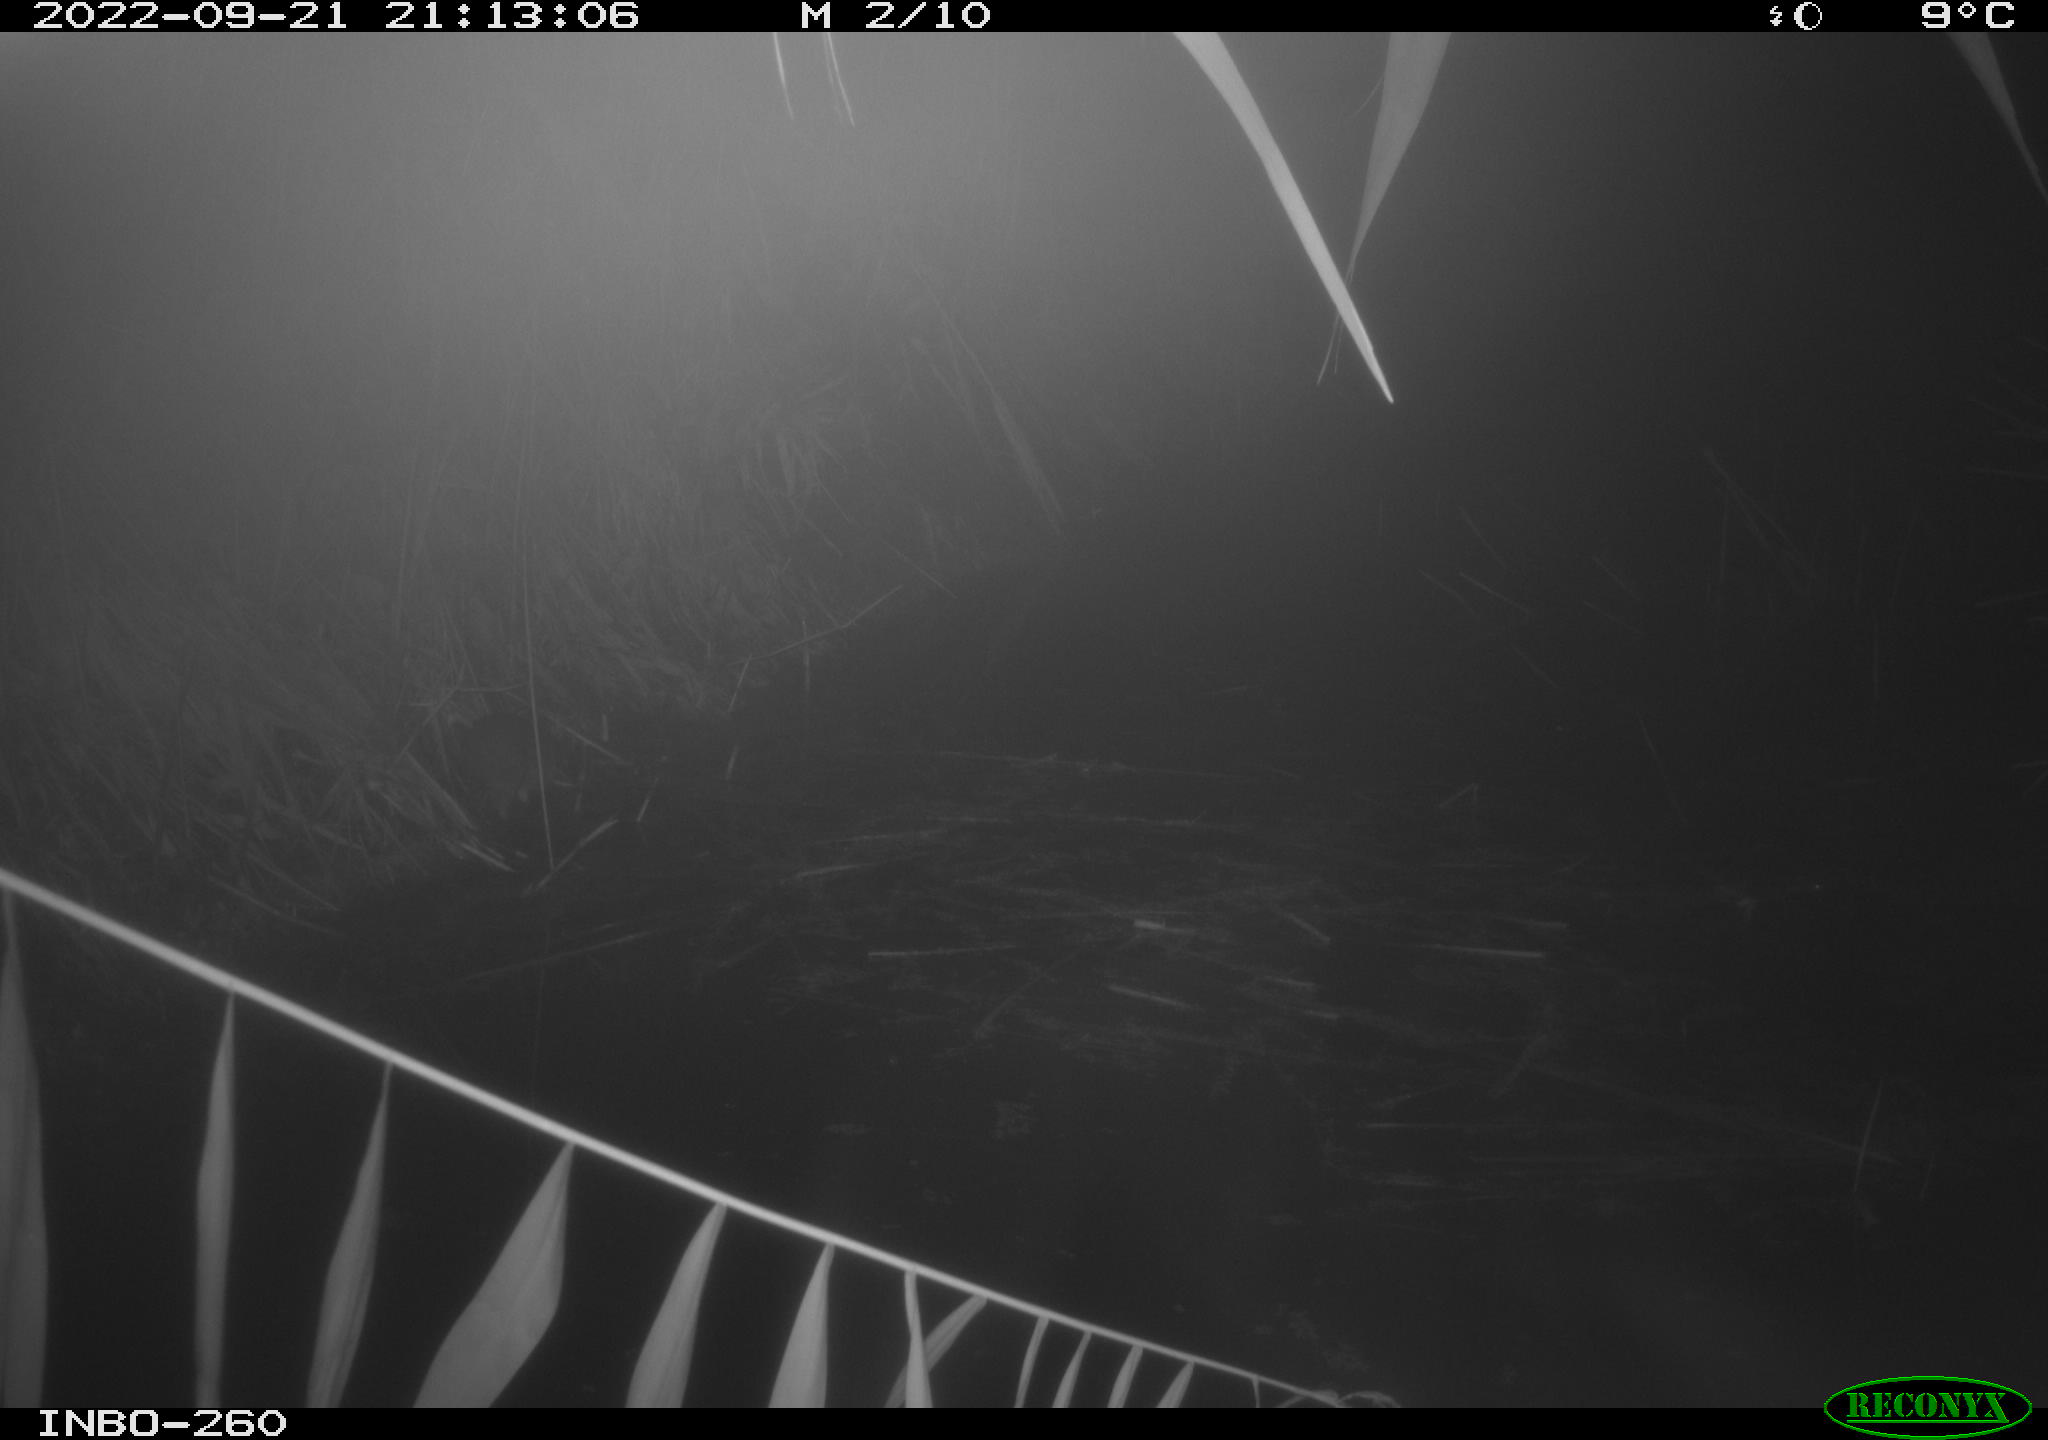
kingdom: Animalia
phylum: Chordata
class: Mammalia
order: Rodentia
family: Muridae
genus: Rattus
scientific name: Rattus norvegicus
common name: Brown rat
